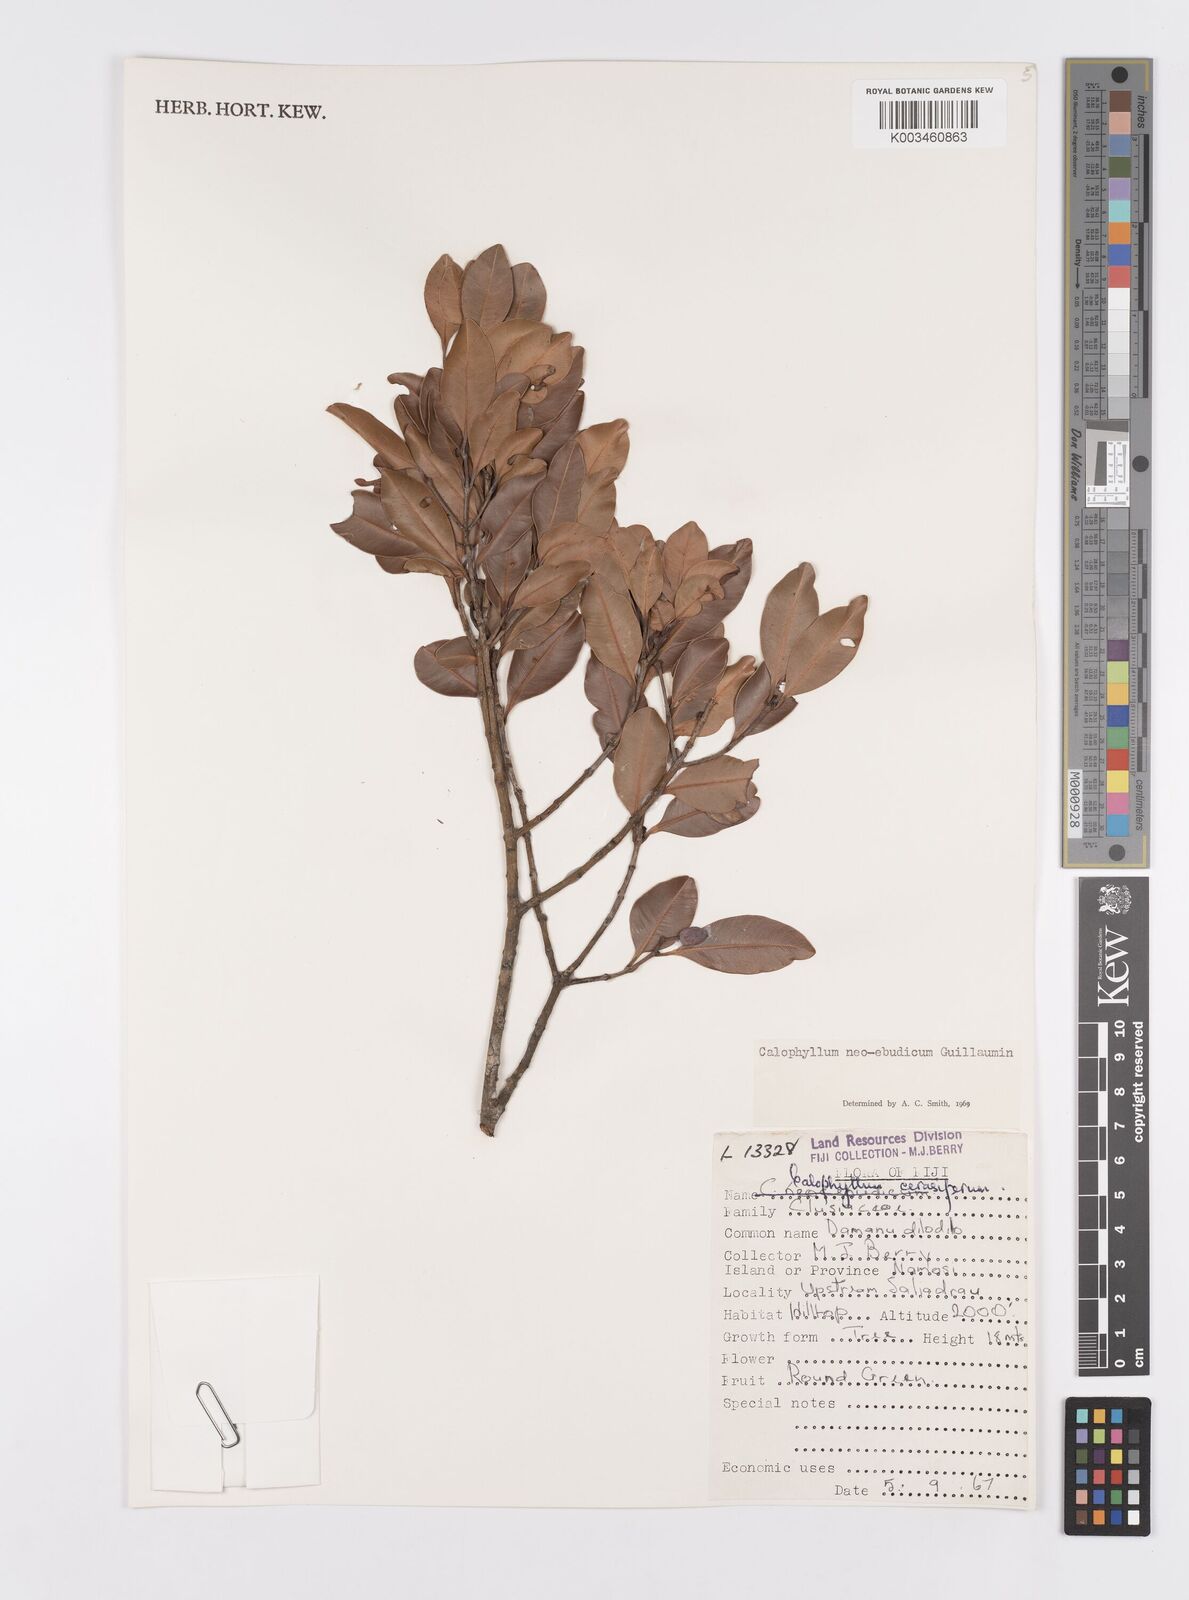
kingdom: Plantae
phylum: Tracheophyta
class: Magnoliopsida
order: Malpighiales
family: Calophyllaceae
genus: Calophyllum
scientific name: Calophyllum neoebudicum
